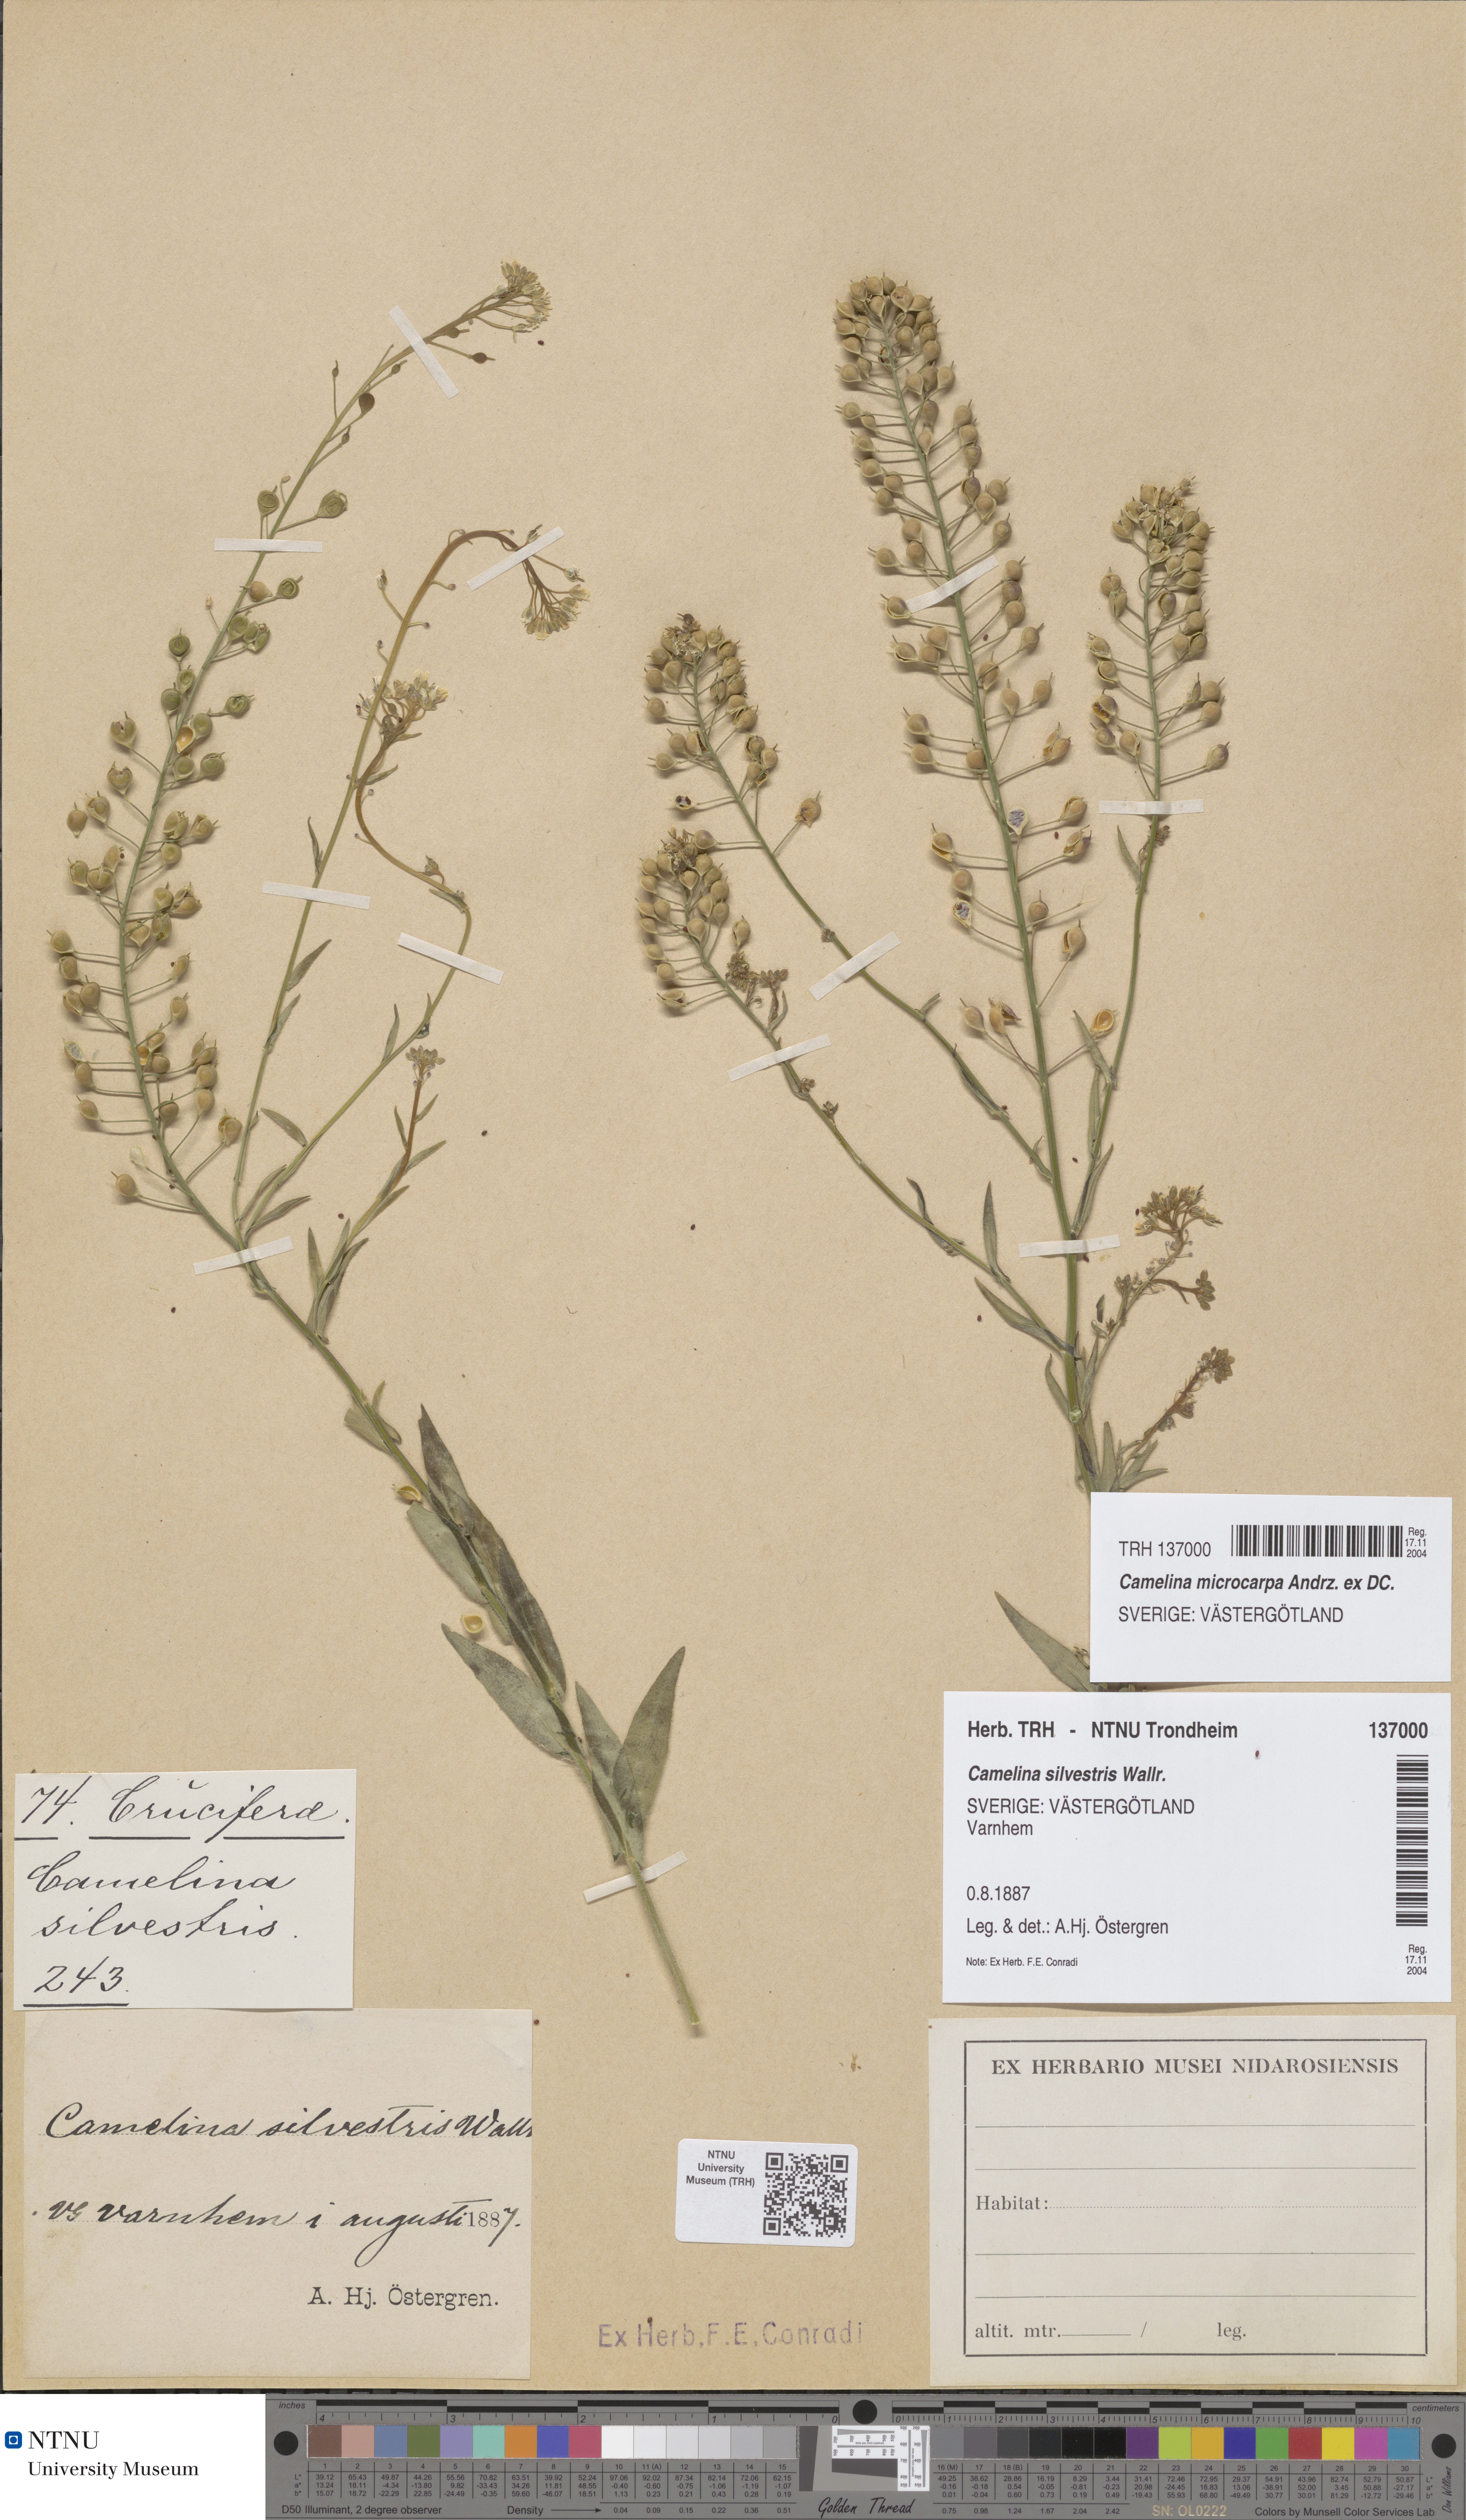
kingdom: Plantae
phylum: Tracheophyta
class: Magnoliopsida
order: Brassicales
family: Brassicaceae
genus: Camelina
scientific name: Camelina sativa
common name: Gold-of-pleasure
